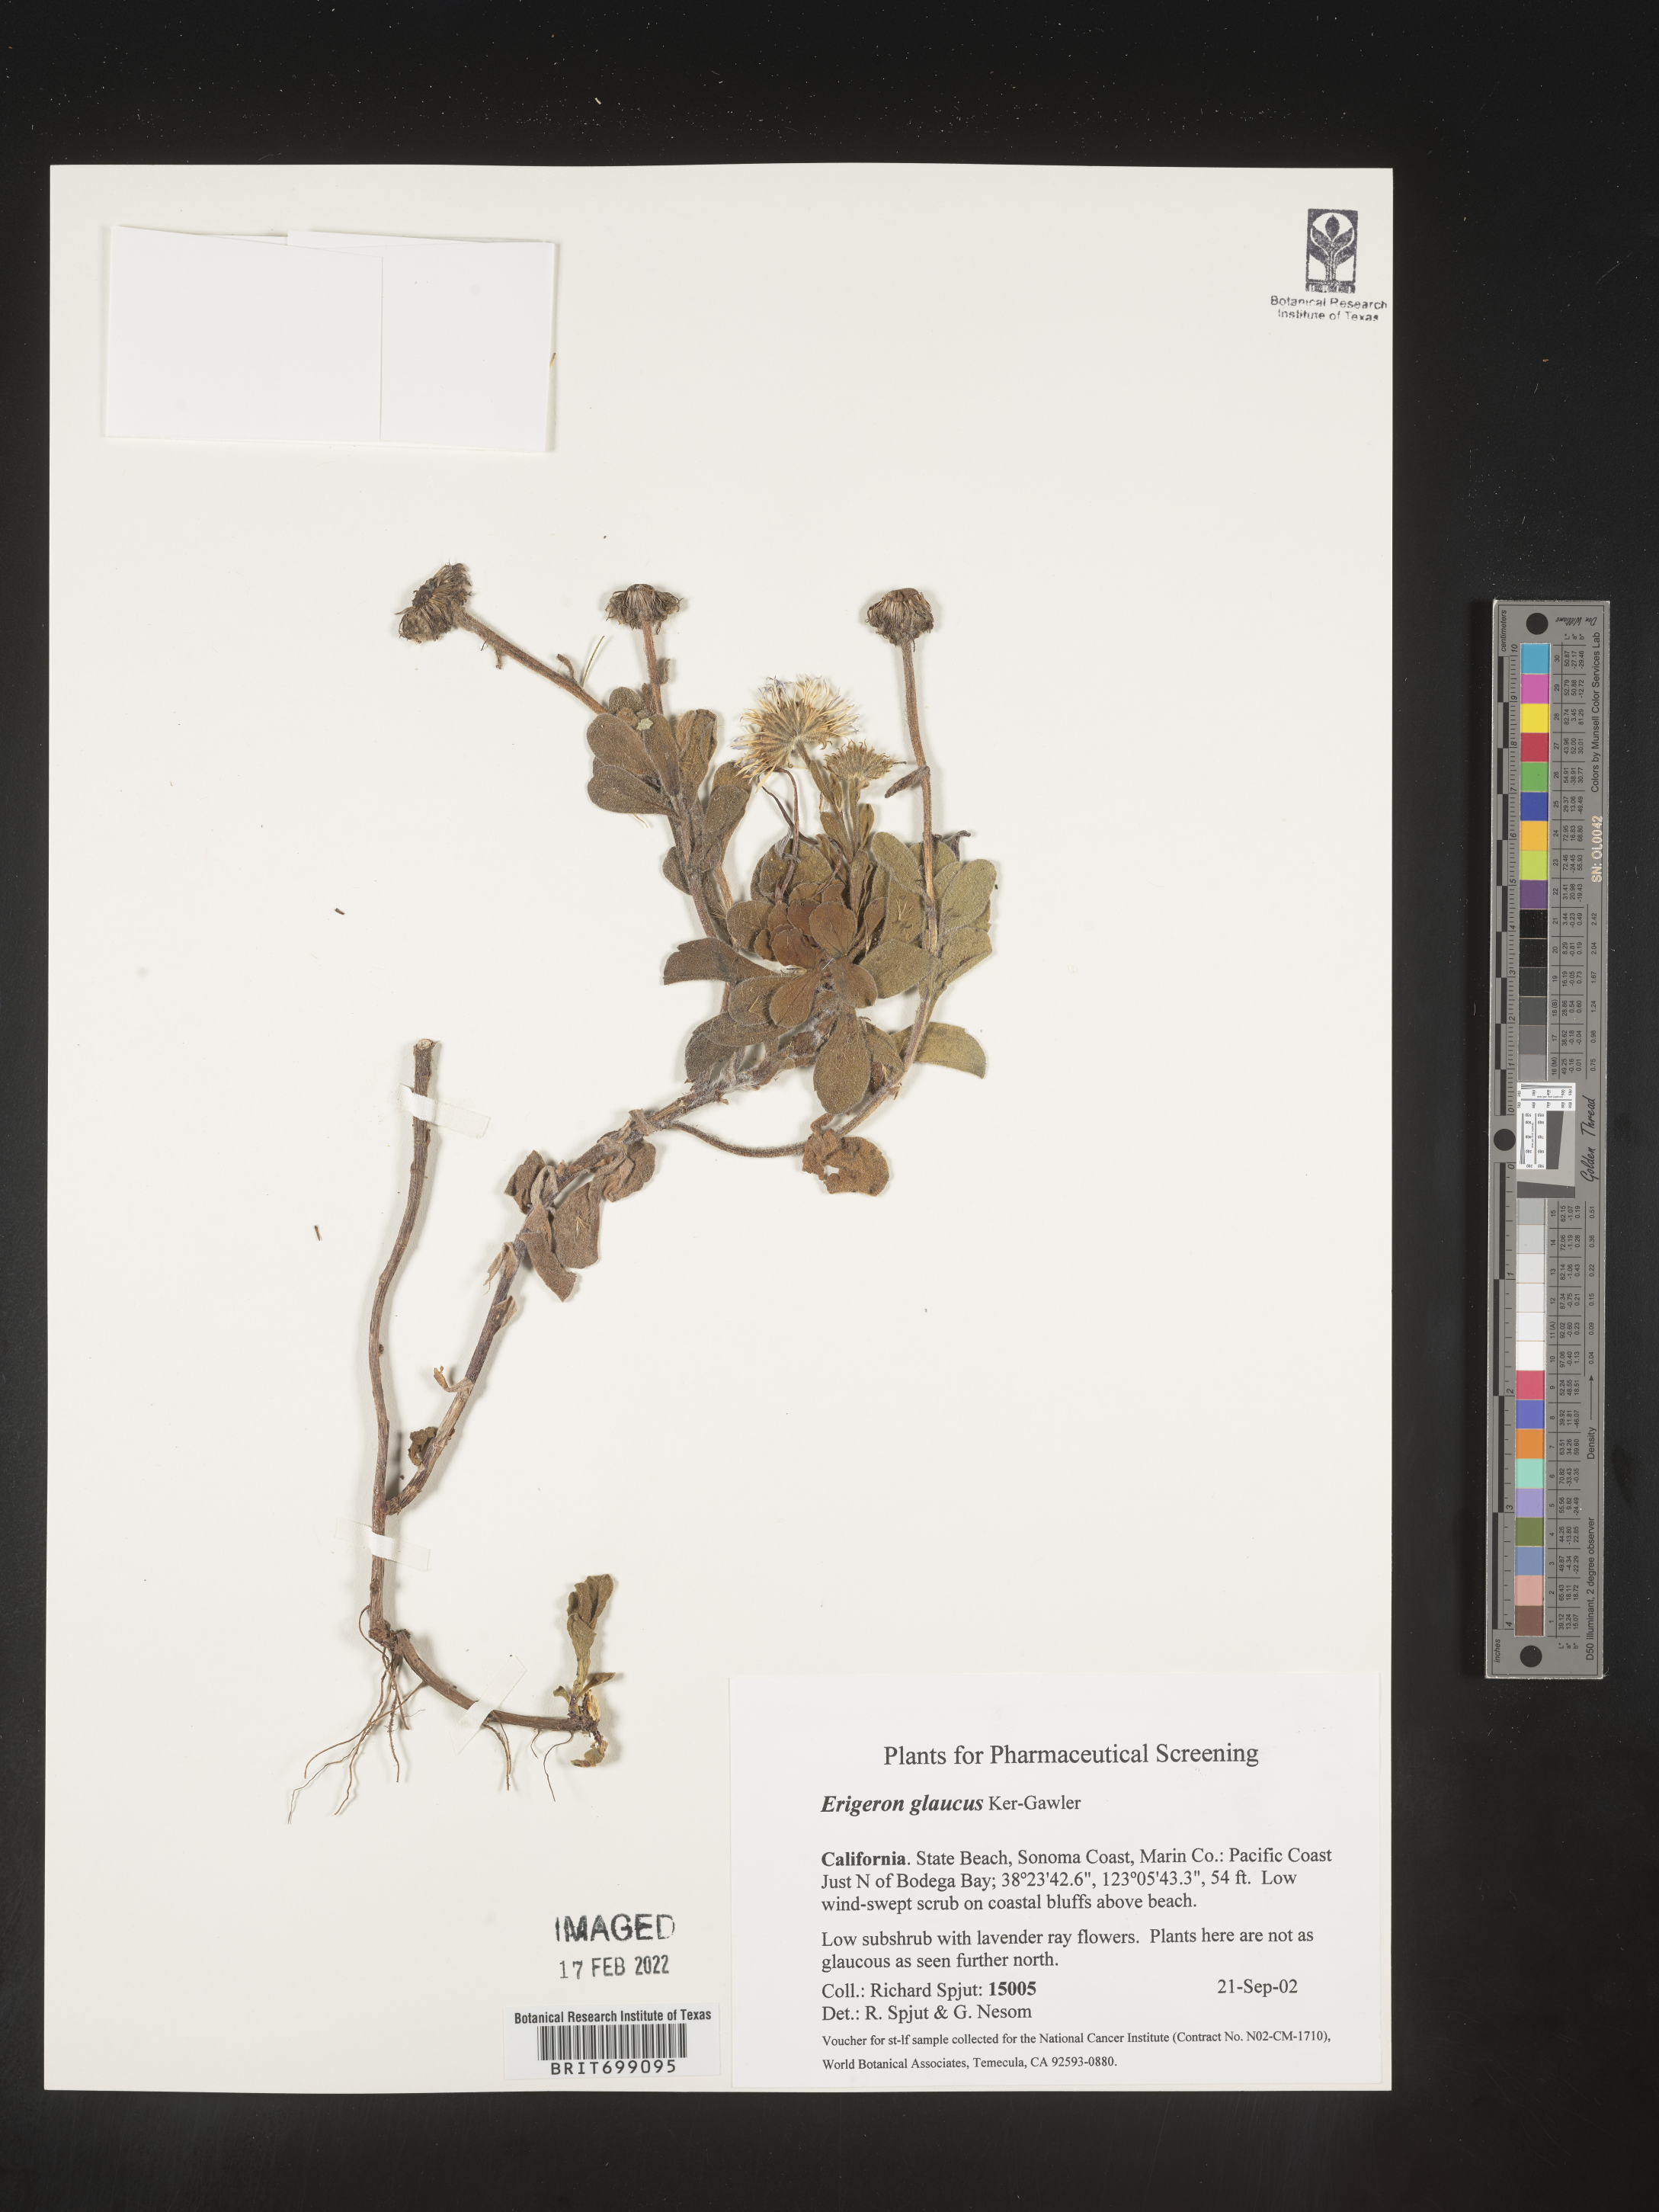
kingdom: Plantae
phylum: Tracheophyta
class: Magnoliopsida
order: Asterales
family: Asteraceae
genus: Erigeron
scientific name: Erigeron glaucus
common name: Seaside daisy
